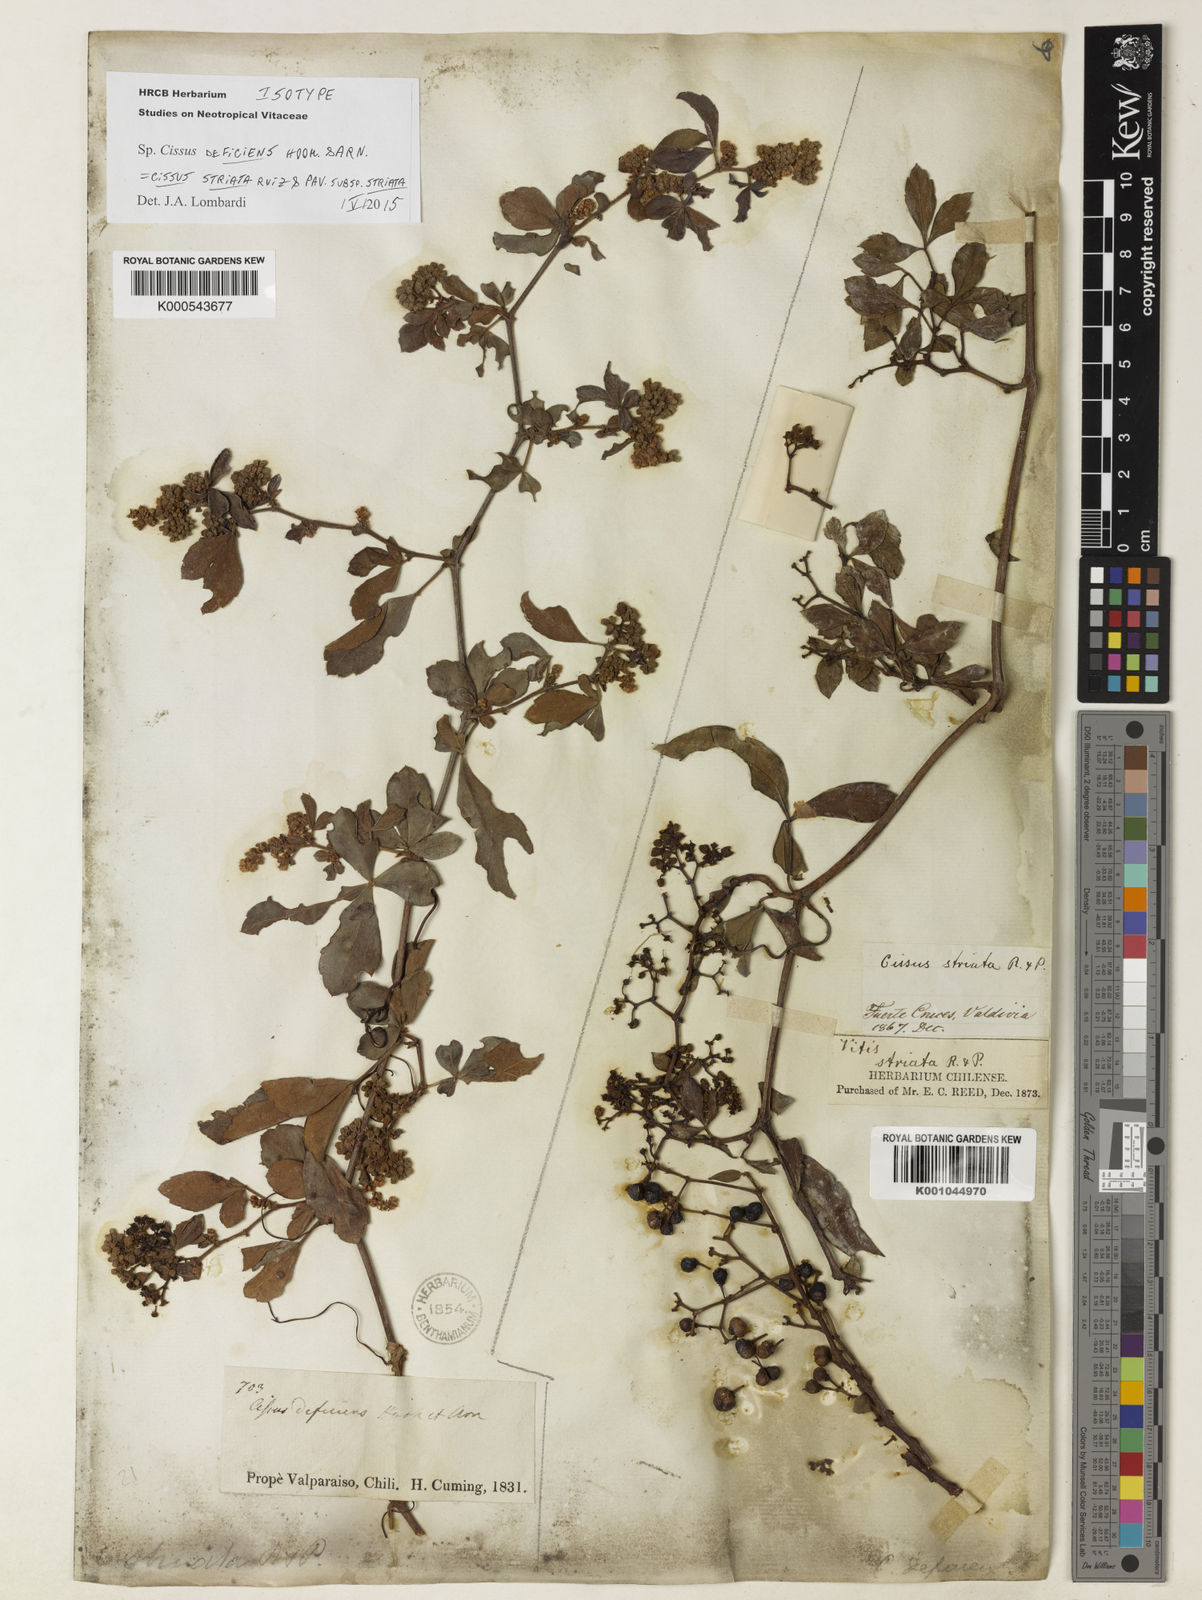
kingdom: Plantae
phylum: Tracheophyta
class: Magnoliopsida
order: Vitales
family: Vitaceae
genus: Clematicissus
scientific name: Clematicissus striata
